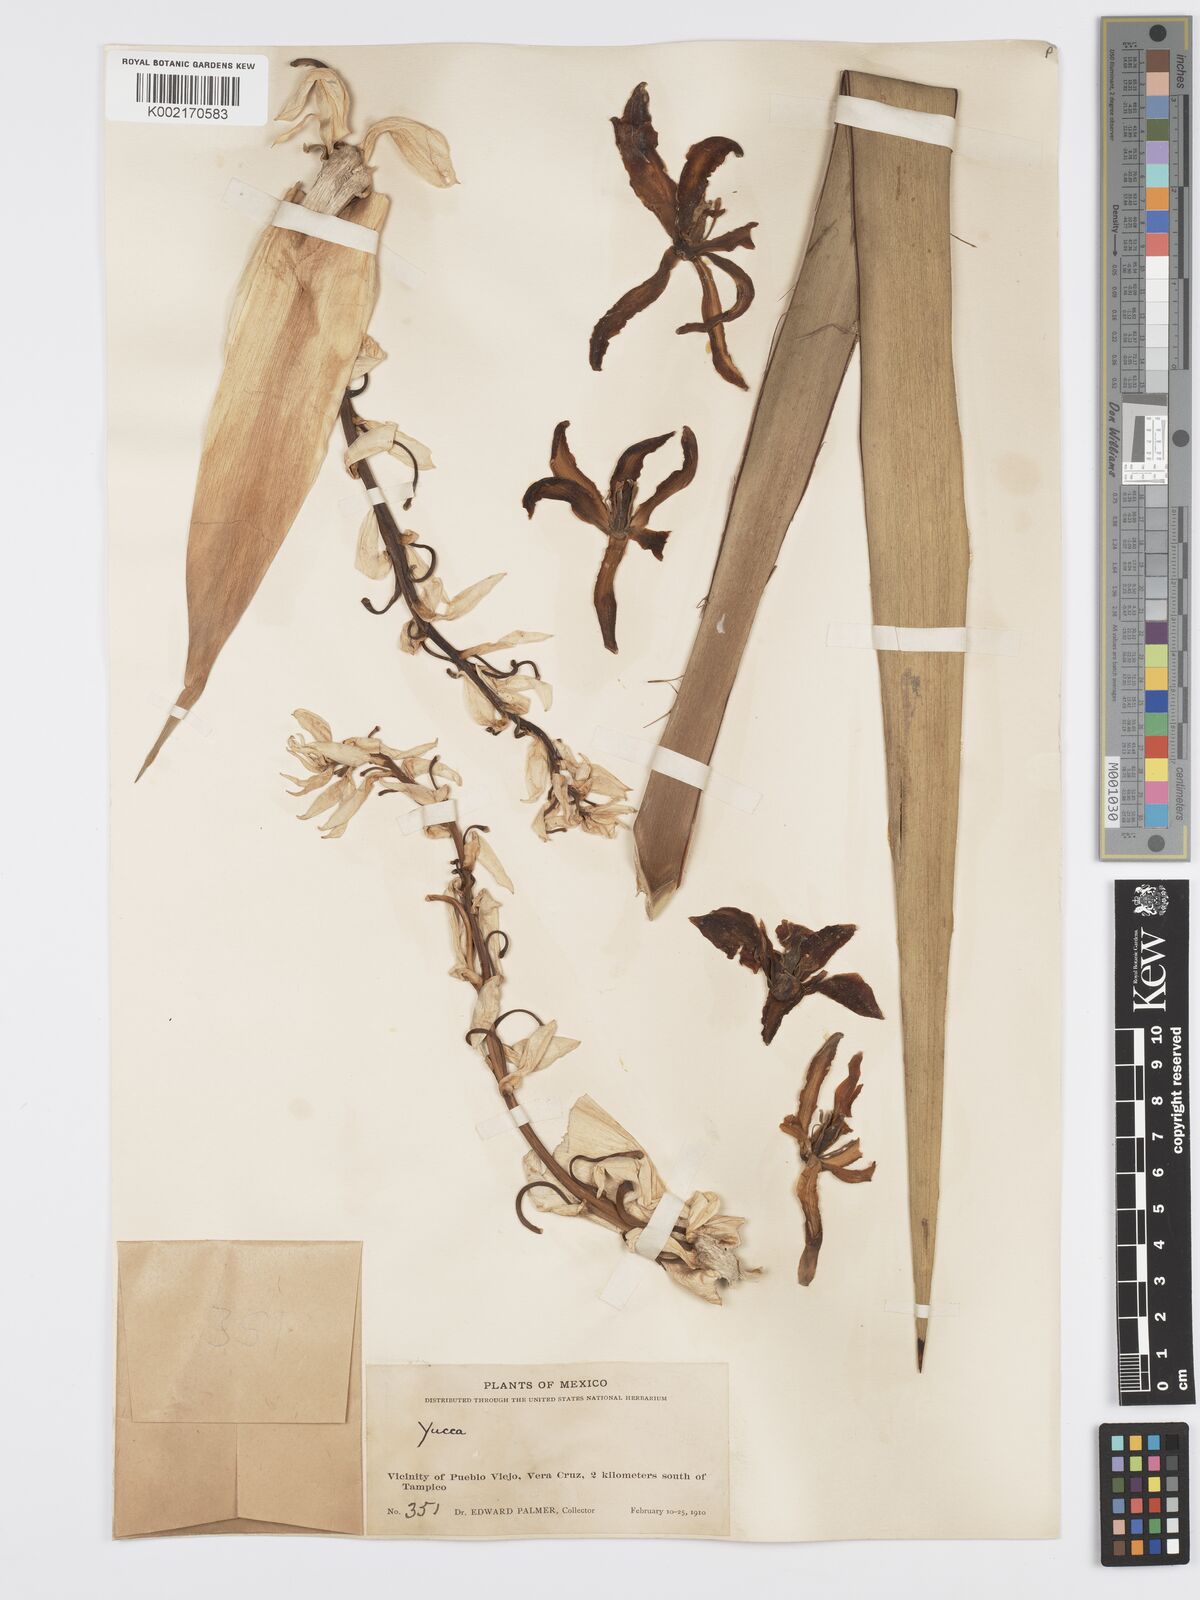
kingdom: Plantae
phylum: Tracheophyta
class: Liliopsida
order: Asparagales
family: Asparagaceae
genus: Yucca
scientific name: Yucca
